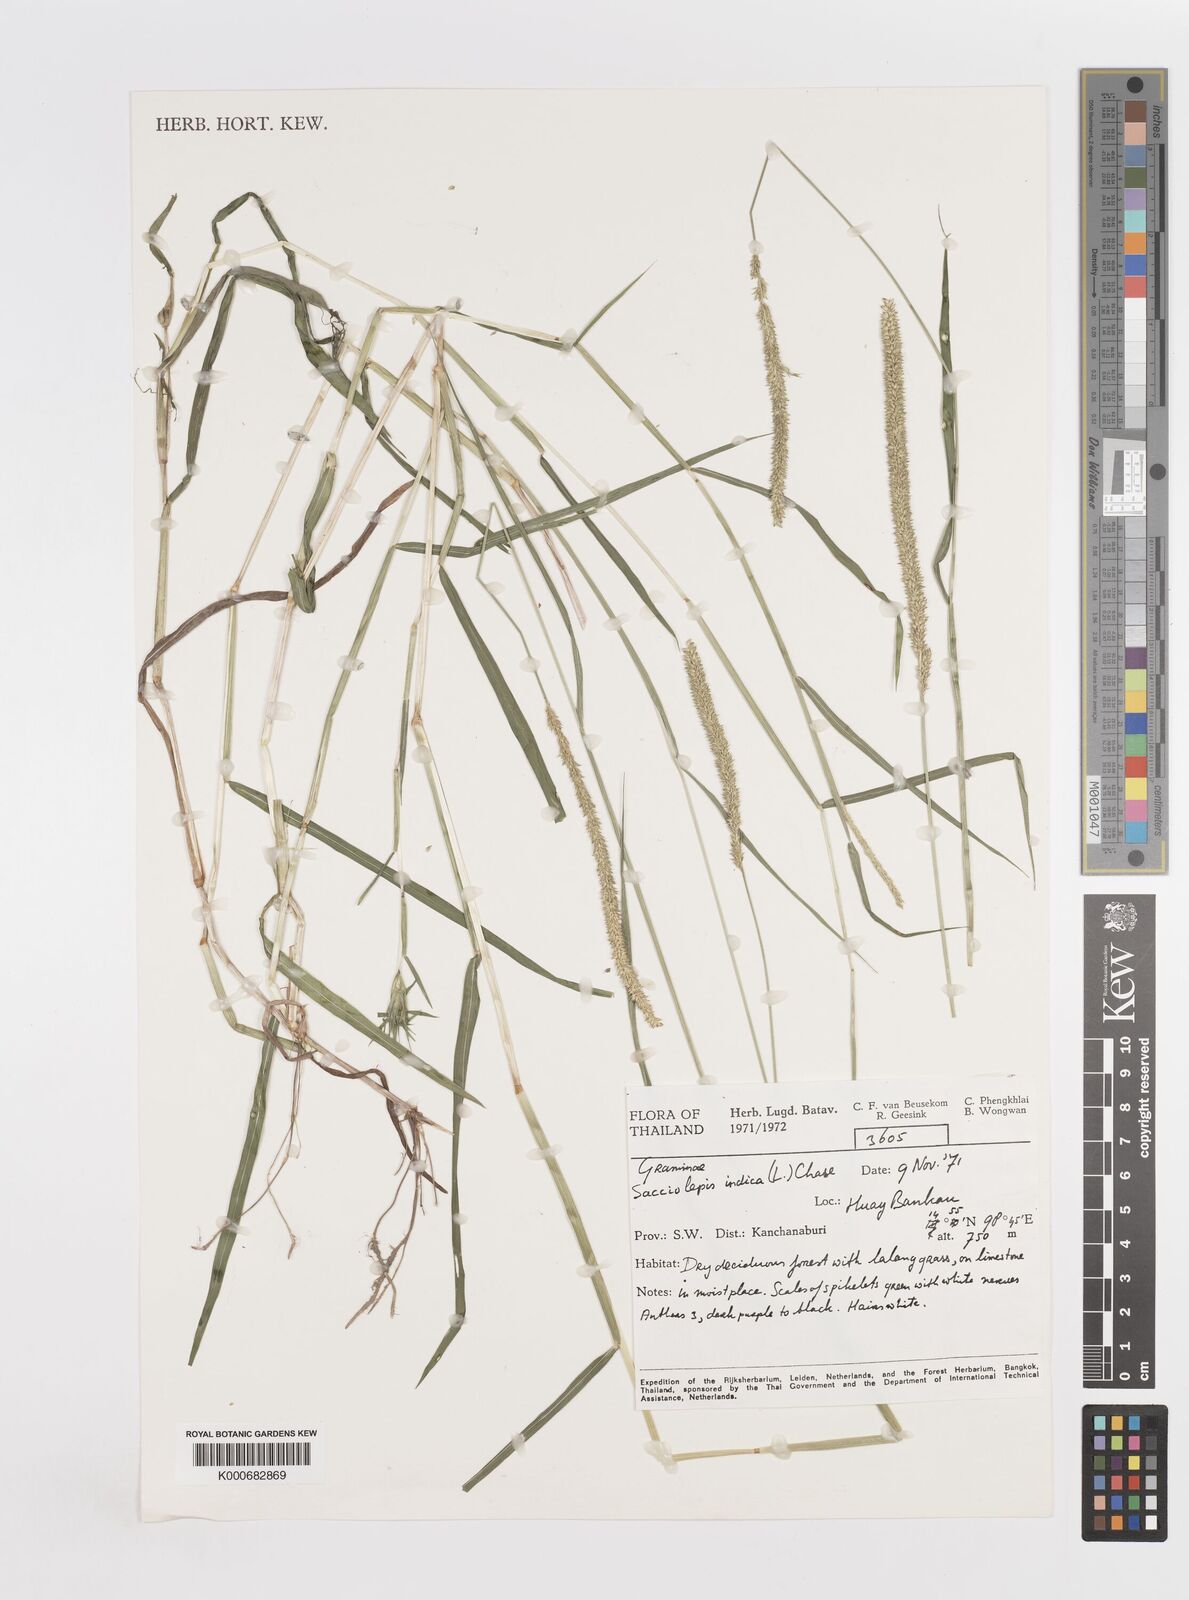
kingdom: Plantae
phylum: Tracheophyta
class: Liliopsida
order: Poales
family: Poaceae
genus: Sacciolepis
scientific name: Sacciolepis indica
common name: Glenwoodgrass
